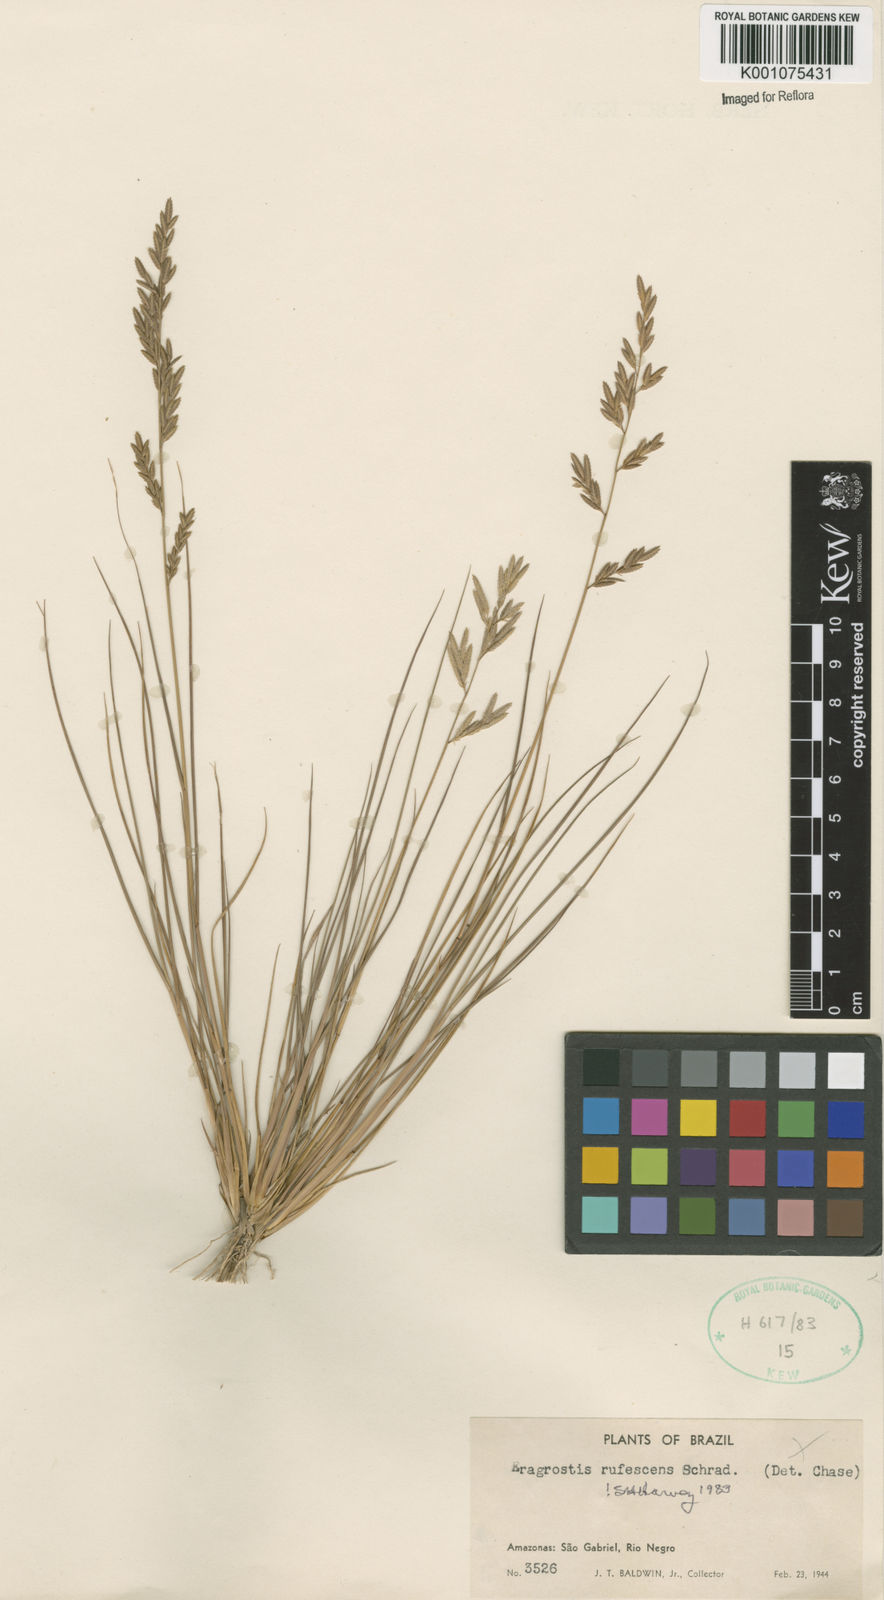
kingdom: Plantae
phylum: Tracheophyta
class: Liliopsida
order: Poales
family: Poaceae
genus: Eragrostis
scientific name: Eragrostis rufescens
